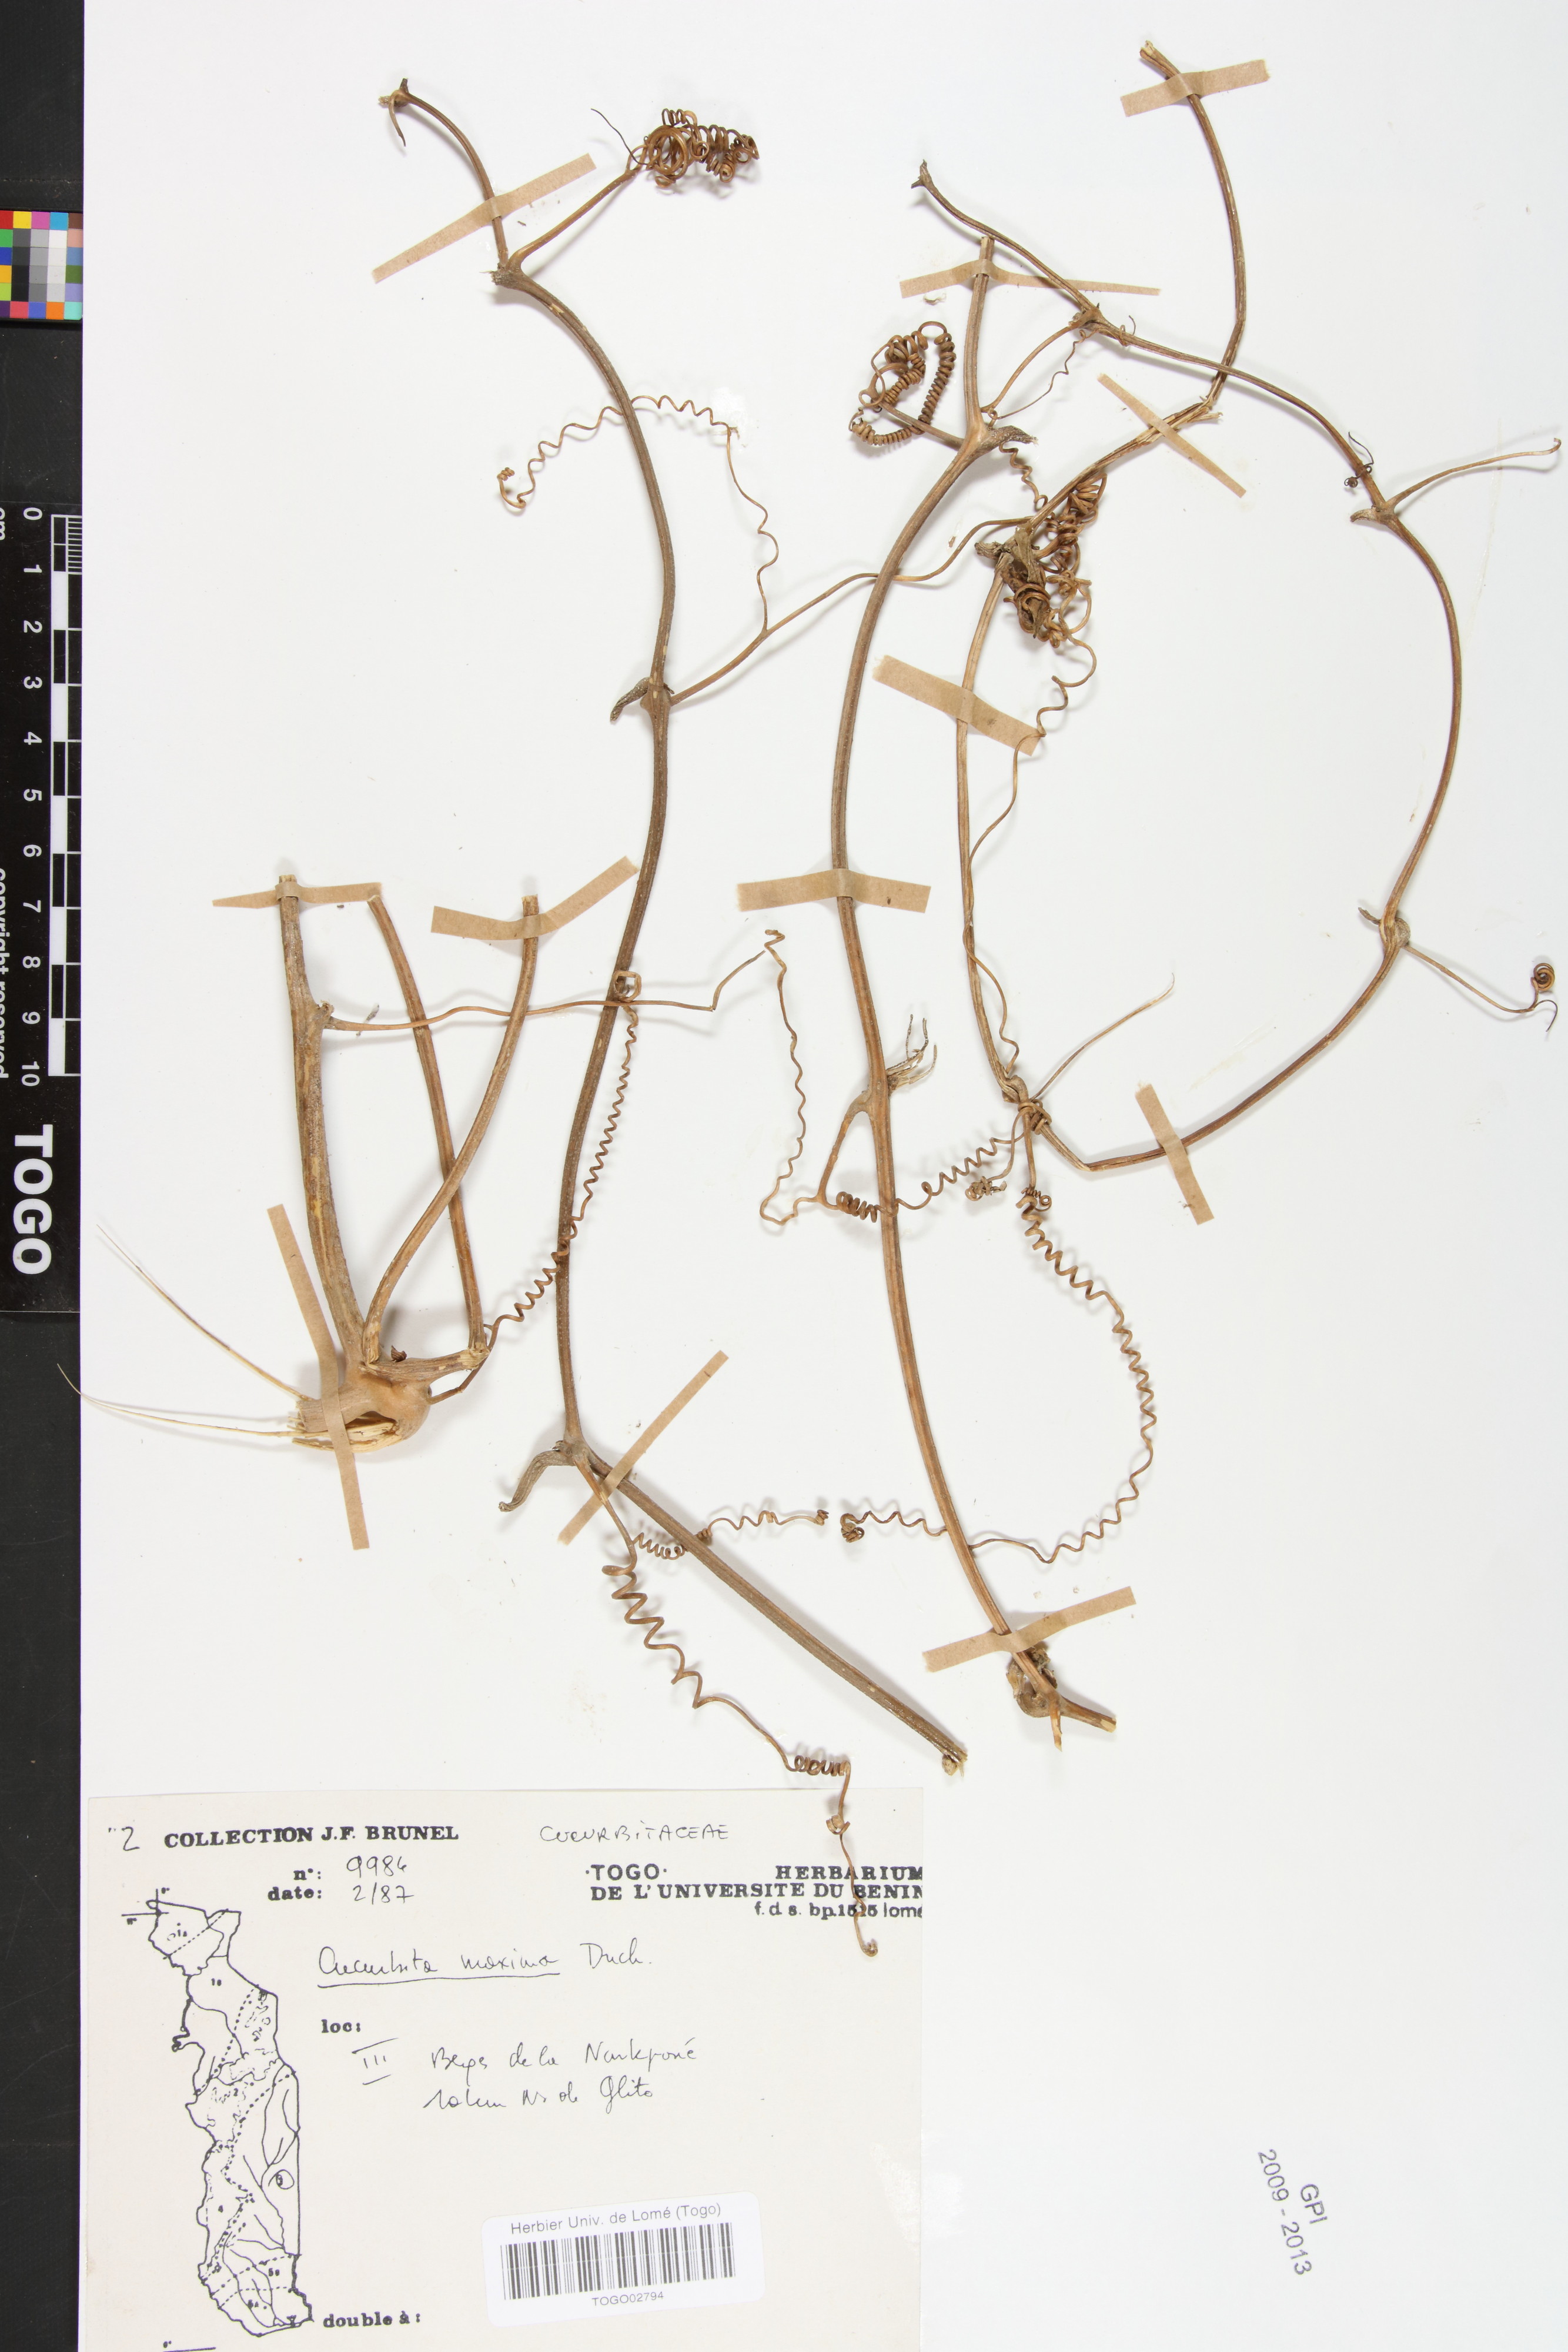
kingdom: Plantae
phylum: Tracheophyta
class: Magnoliopsida
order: Cucurbitales
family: Cucurbitaceae
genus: Cucurbita
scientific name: Cucurbita maxima
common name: Pumpkin
